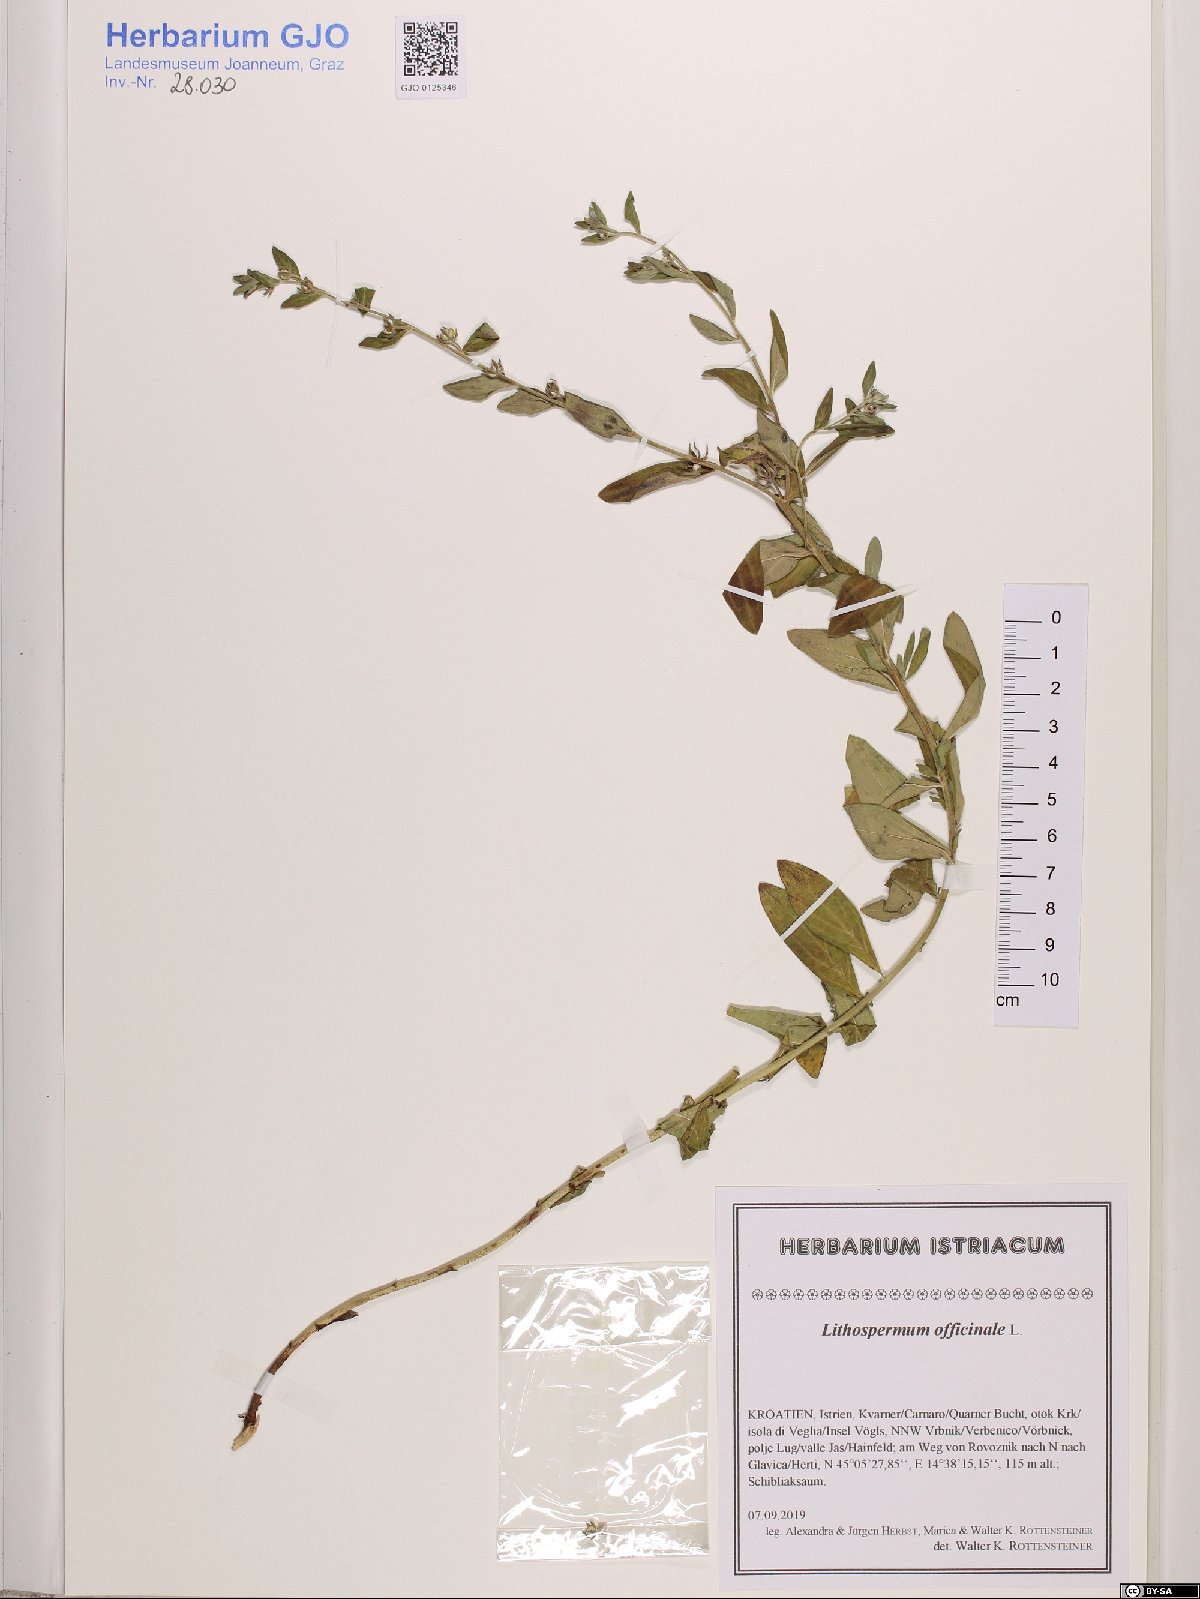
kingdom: Plantae
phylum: Tracheophyta
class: Magnoliopsida
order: Boraginales
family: Boraginaceae
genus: Lithospermum
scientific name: Lithospermum officinale
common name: Common gromwell
